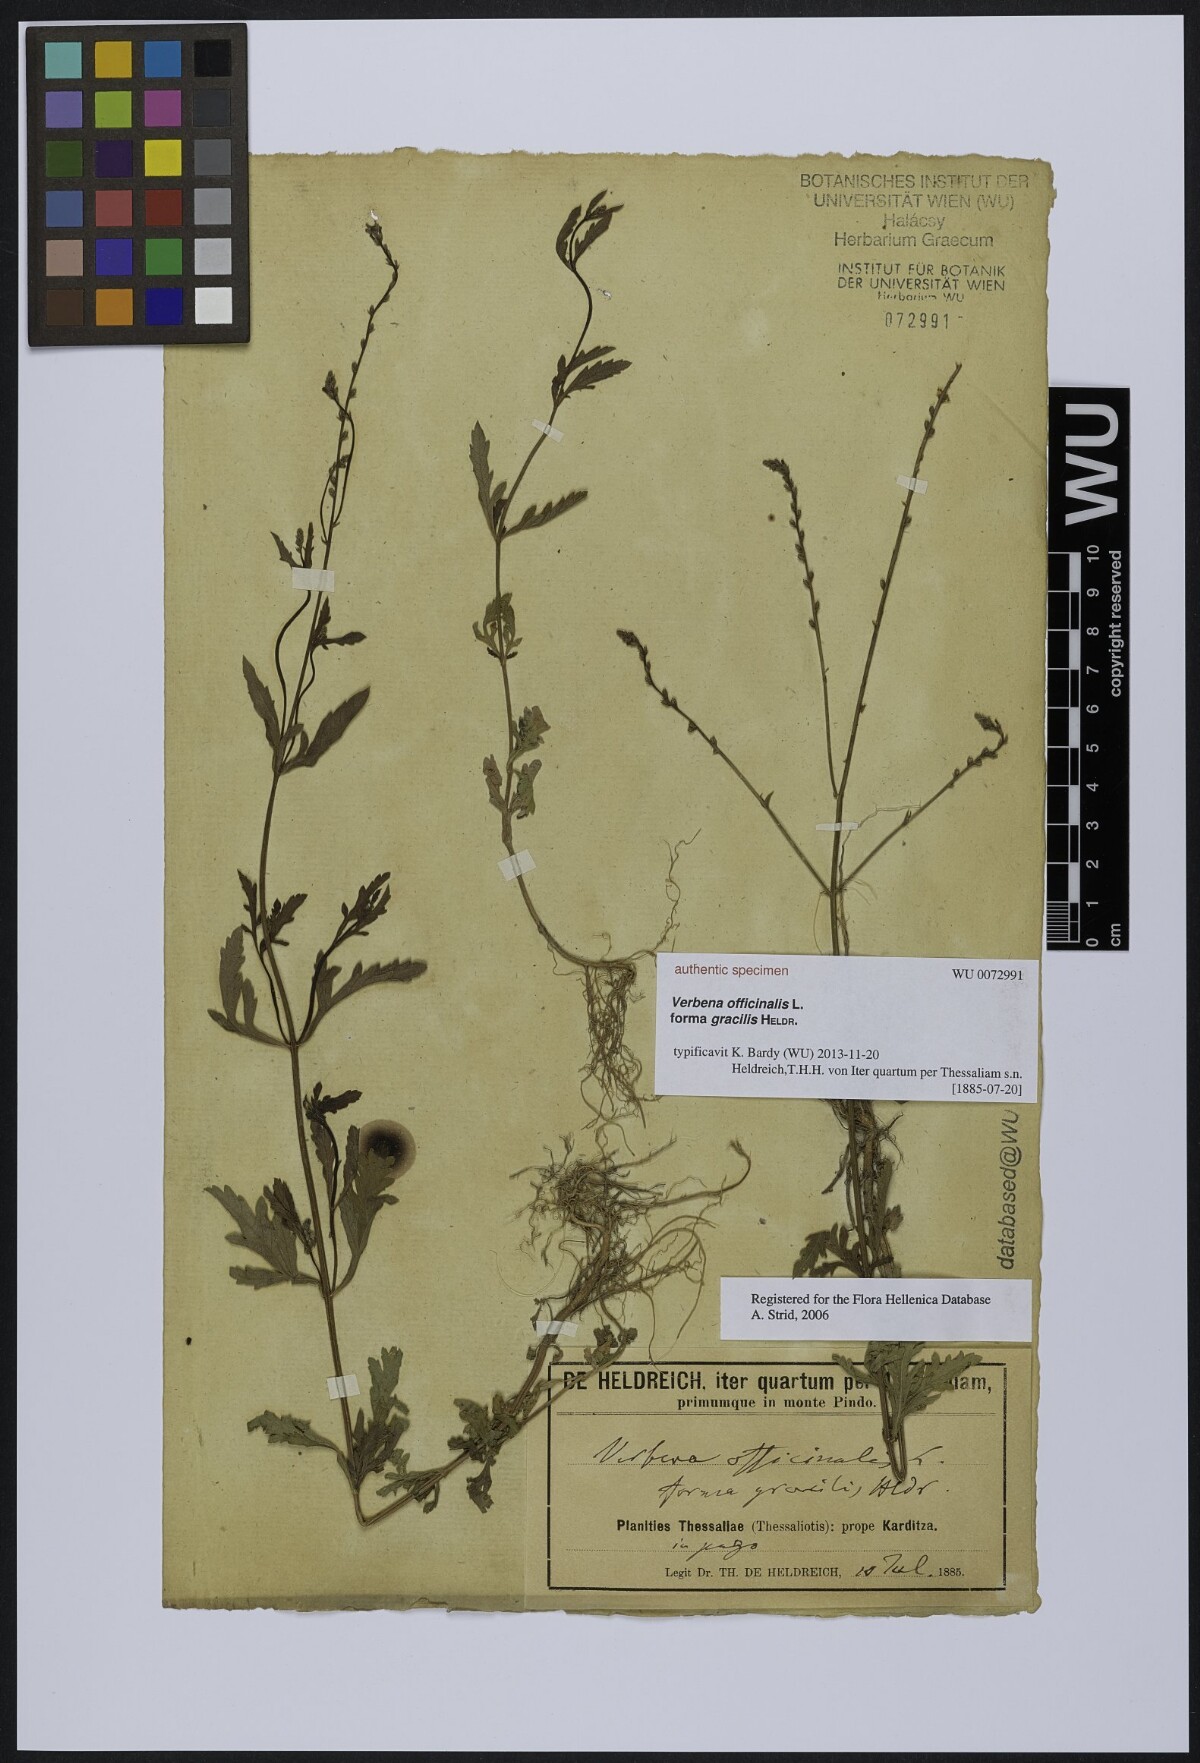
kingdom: Plantae
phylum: Tracheophyta
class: Magnoliopsida
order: Lamiales
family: Verbenaceae
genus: Verbena
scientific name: Verbena officinalis
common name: Vervain
